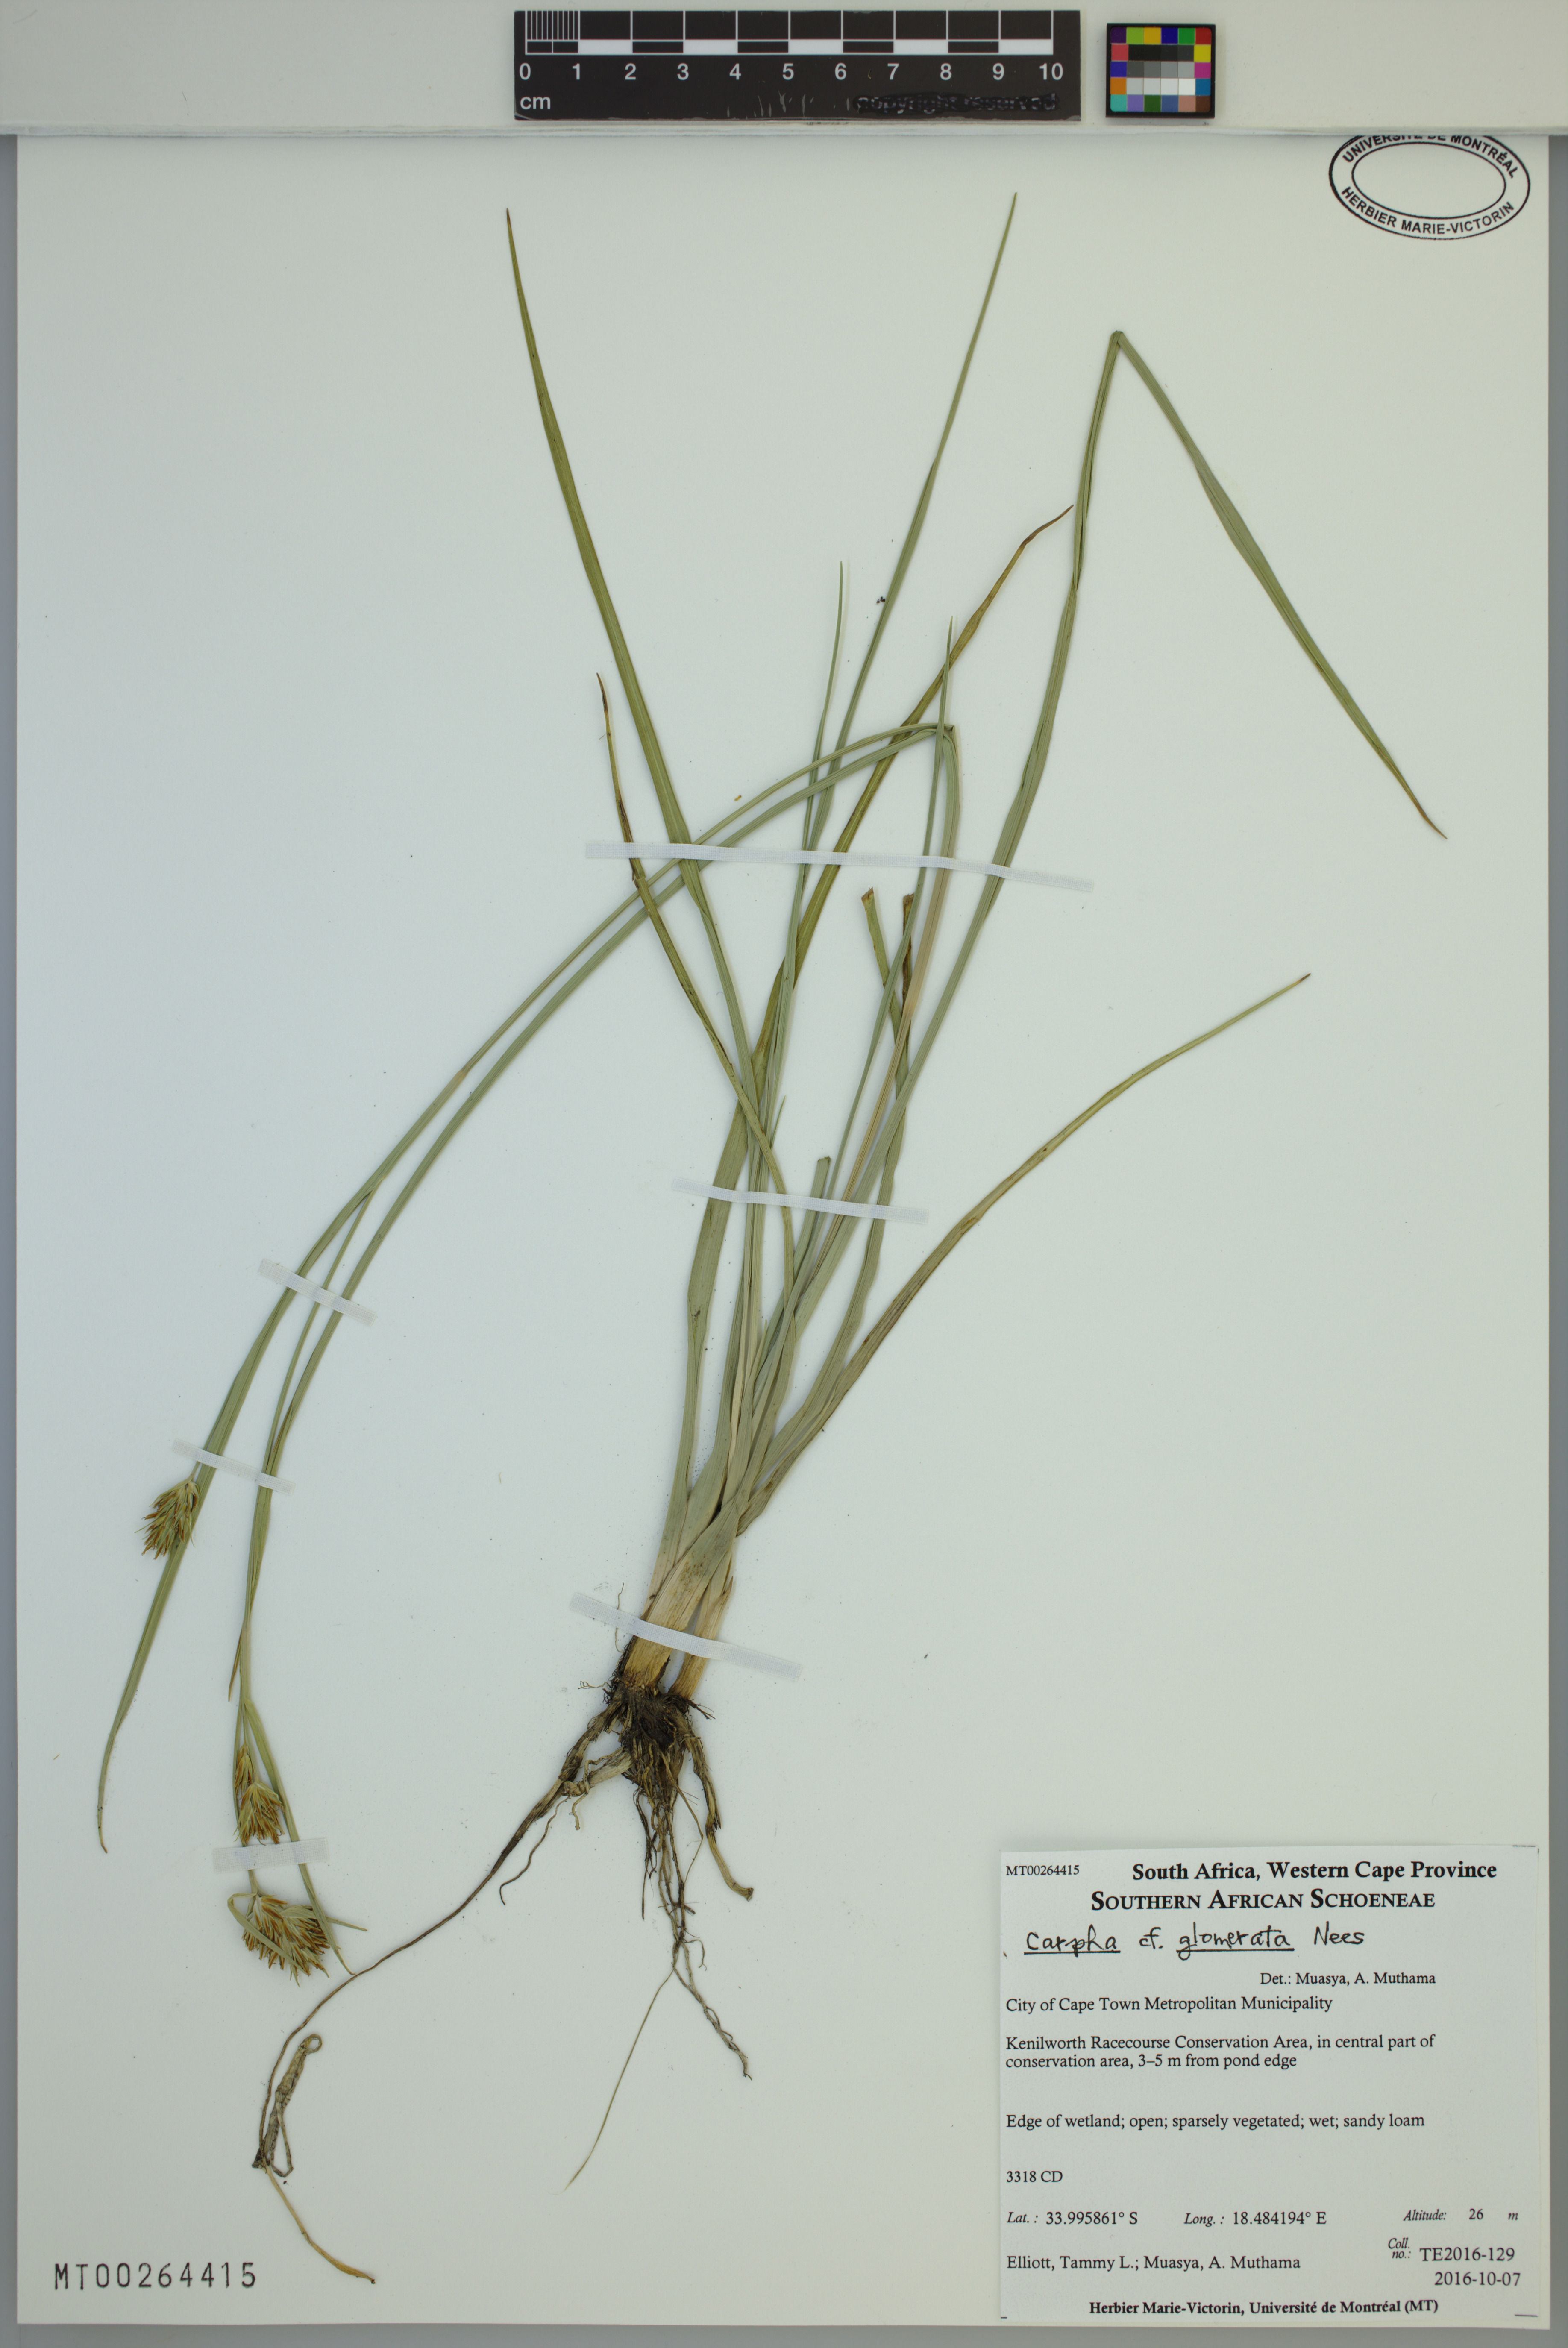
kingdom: Plantae
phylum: Tracheophyta
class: Liliopsida
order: Poales
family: Cyperaceae
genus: Carpha
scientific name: Carpha glomerata
